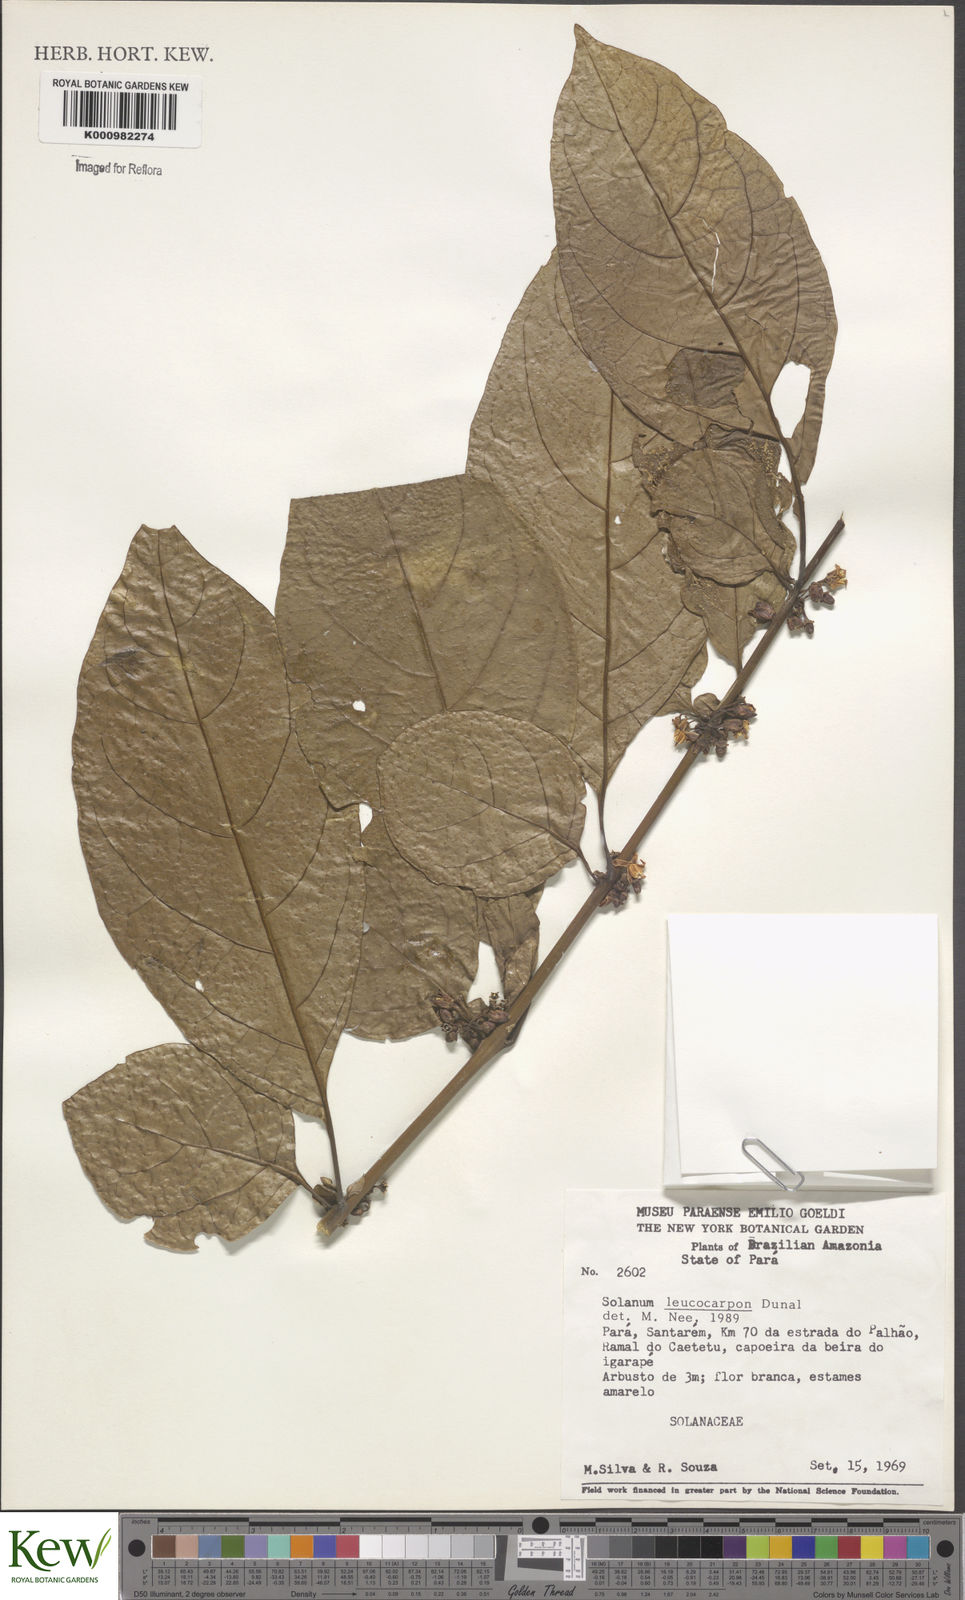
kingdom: Plantae
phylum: Tracheophyta
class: Magnoliopsida
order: Solanales
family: Solanaceae
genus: Solanum
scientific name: Solanum leucocarpon
